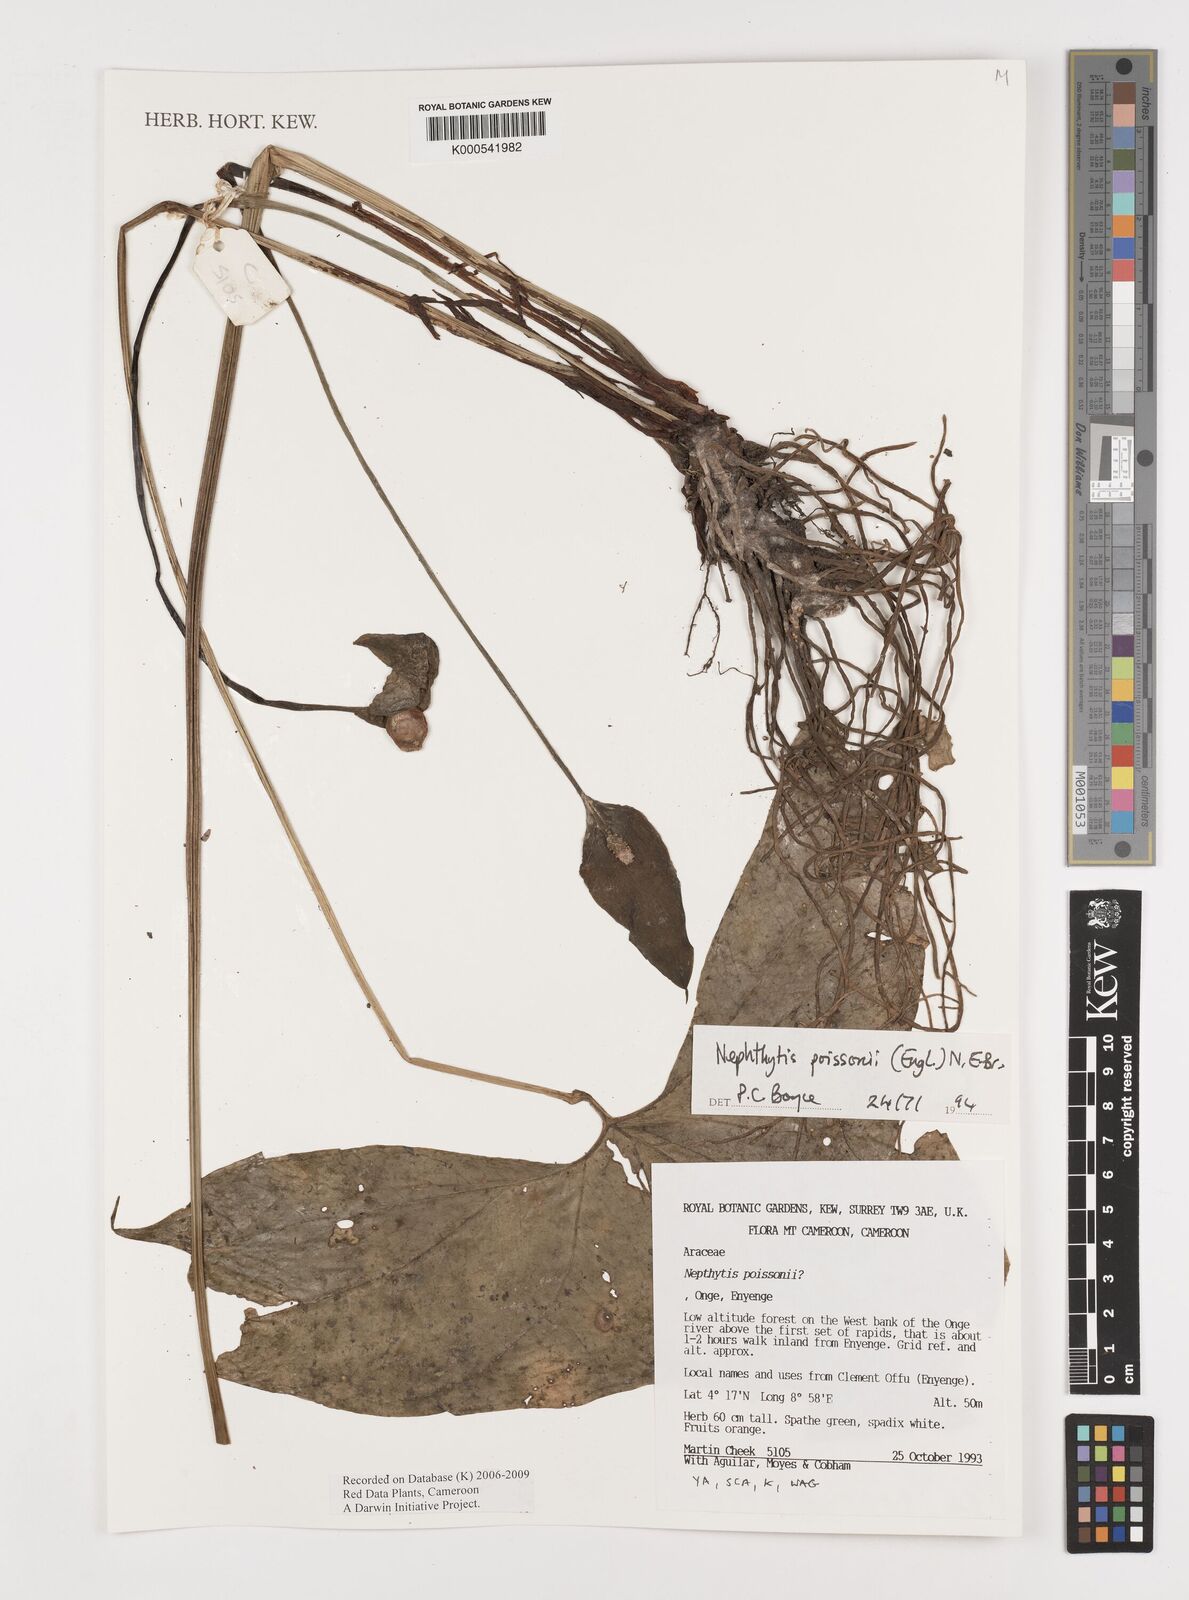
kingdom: Plantae
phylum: Tracheophyta
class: Liliopsida
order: Alismatales
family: Araceae
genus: Nephthytis
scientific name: Nephthytis poissonii
